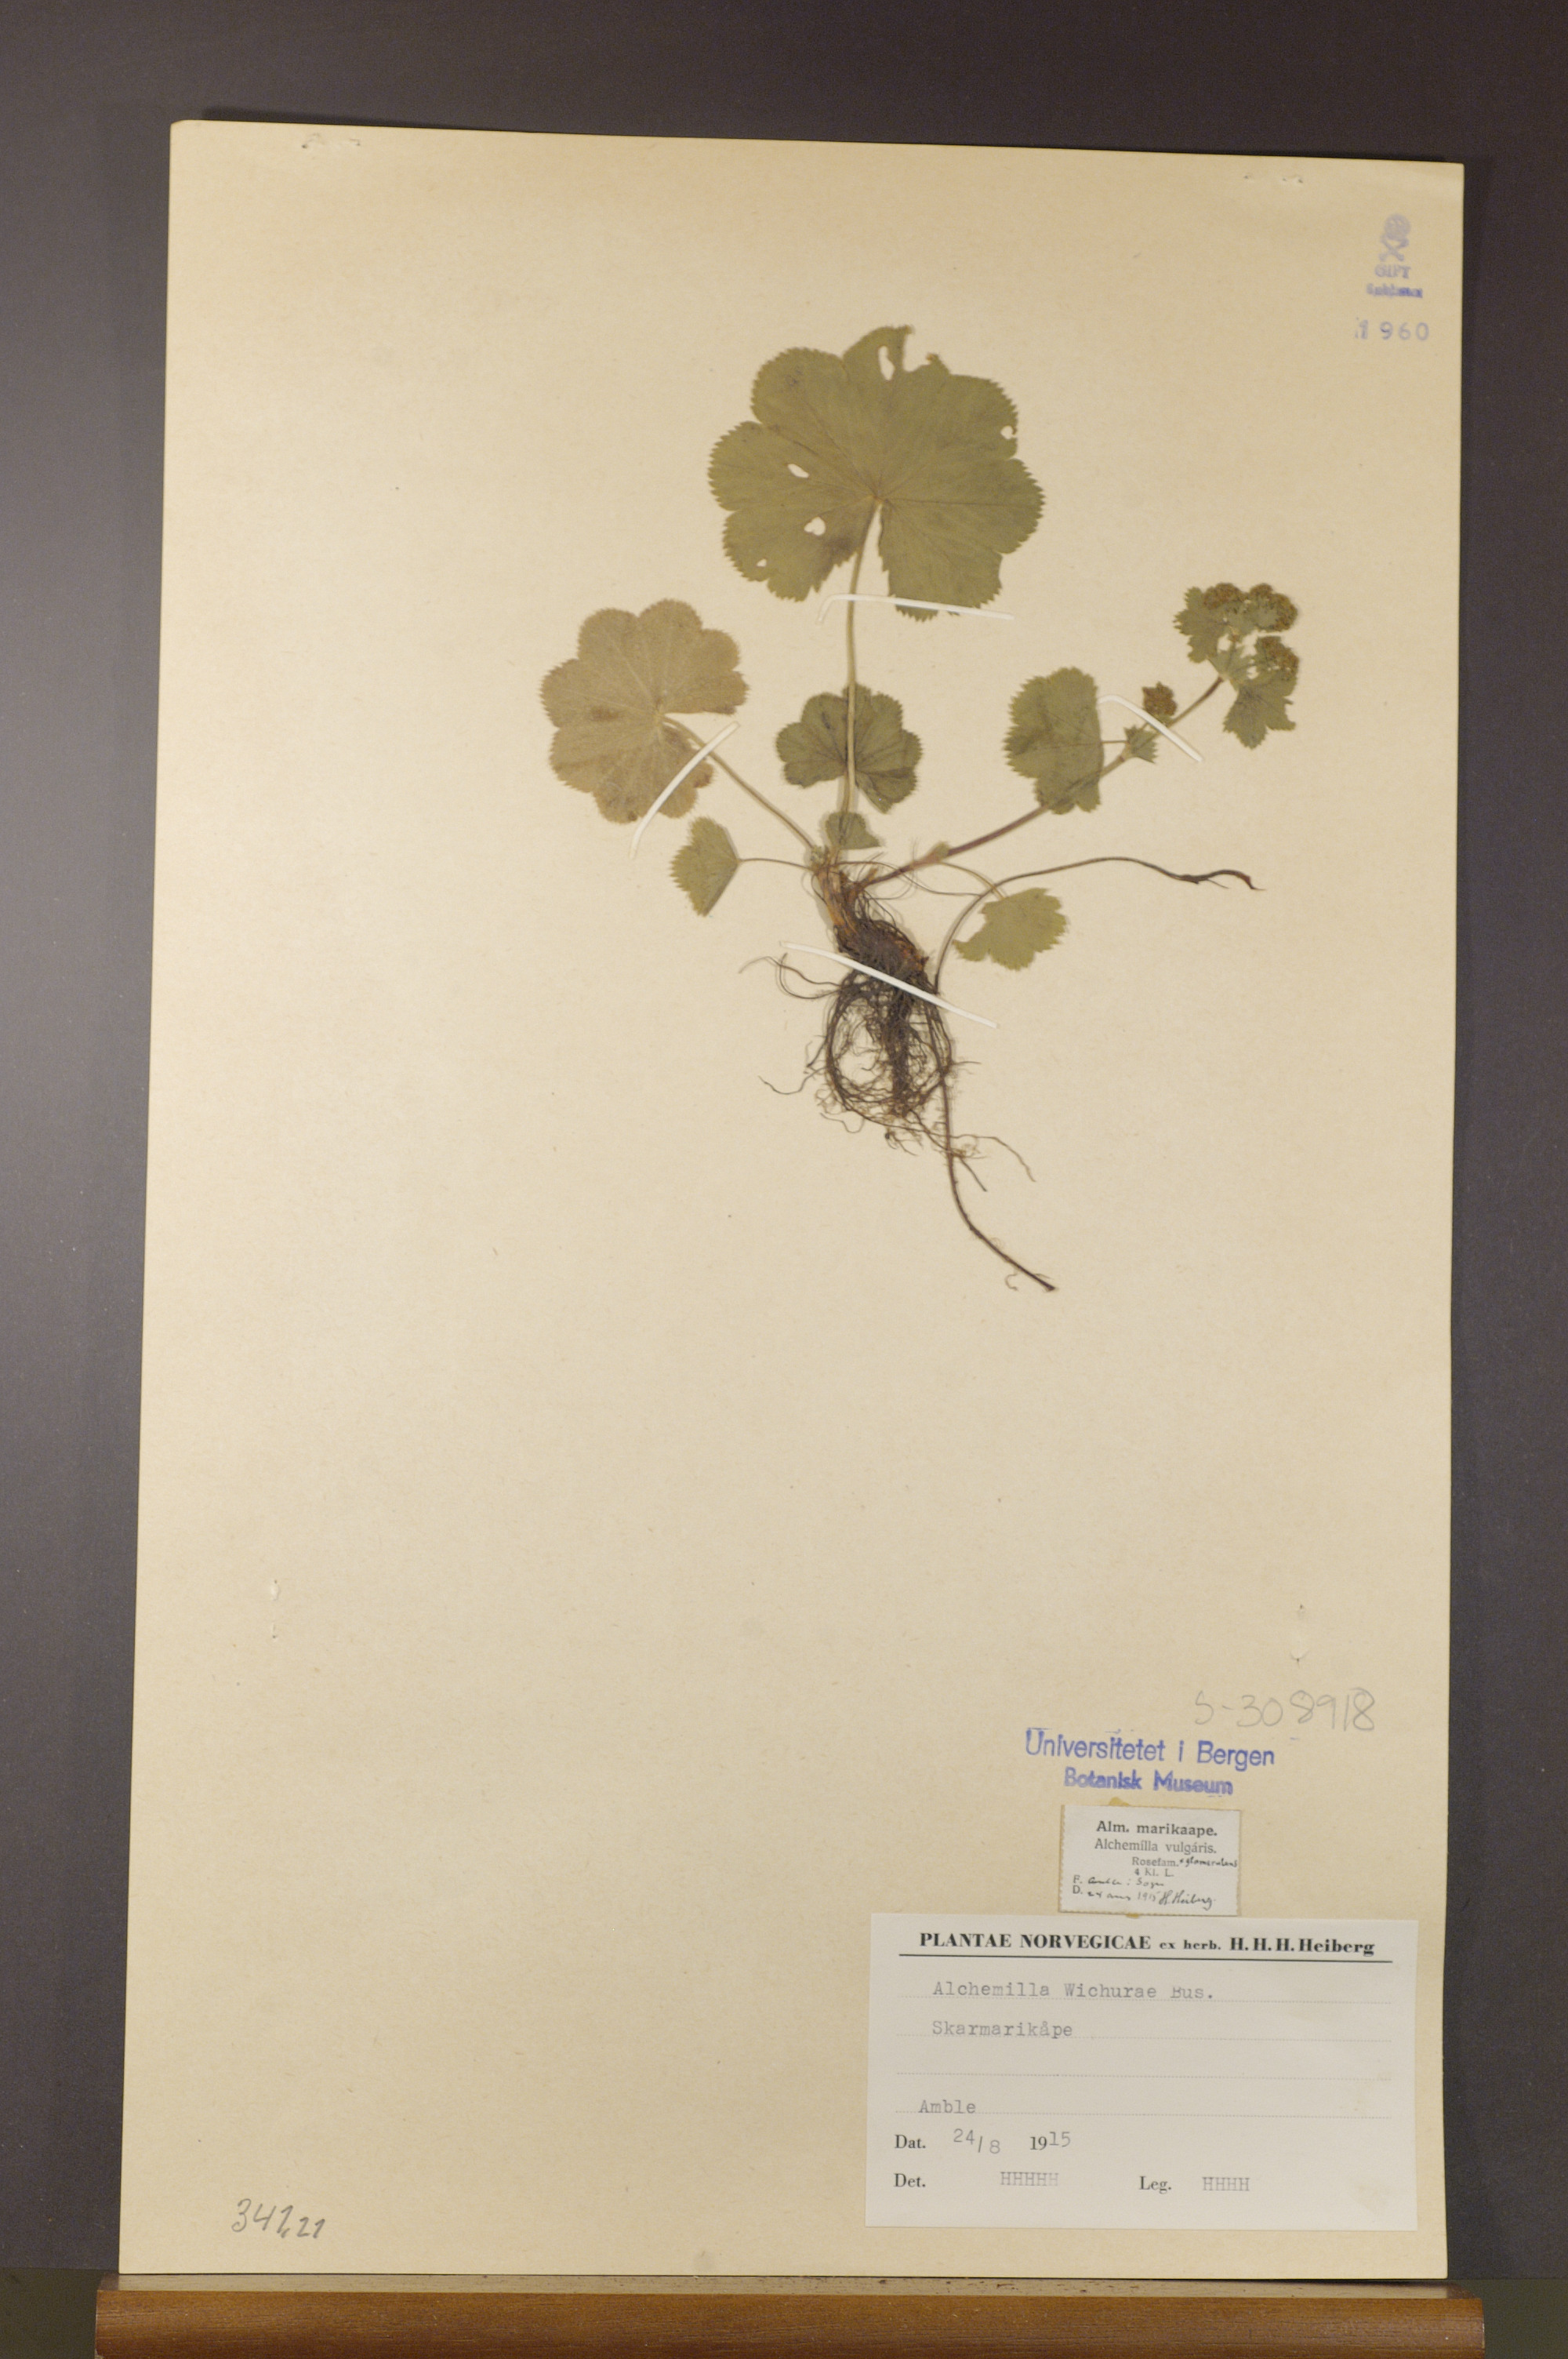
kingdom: Plantae
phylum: Tracheophyta
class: Magnoliopsida
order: Rosales
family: Rosaceae
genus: Alchemilla
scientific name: Alchemilla wichurae
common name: Rock lady's mantle
